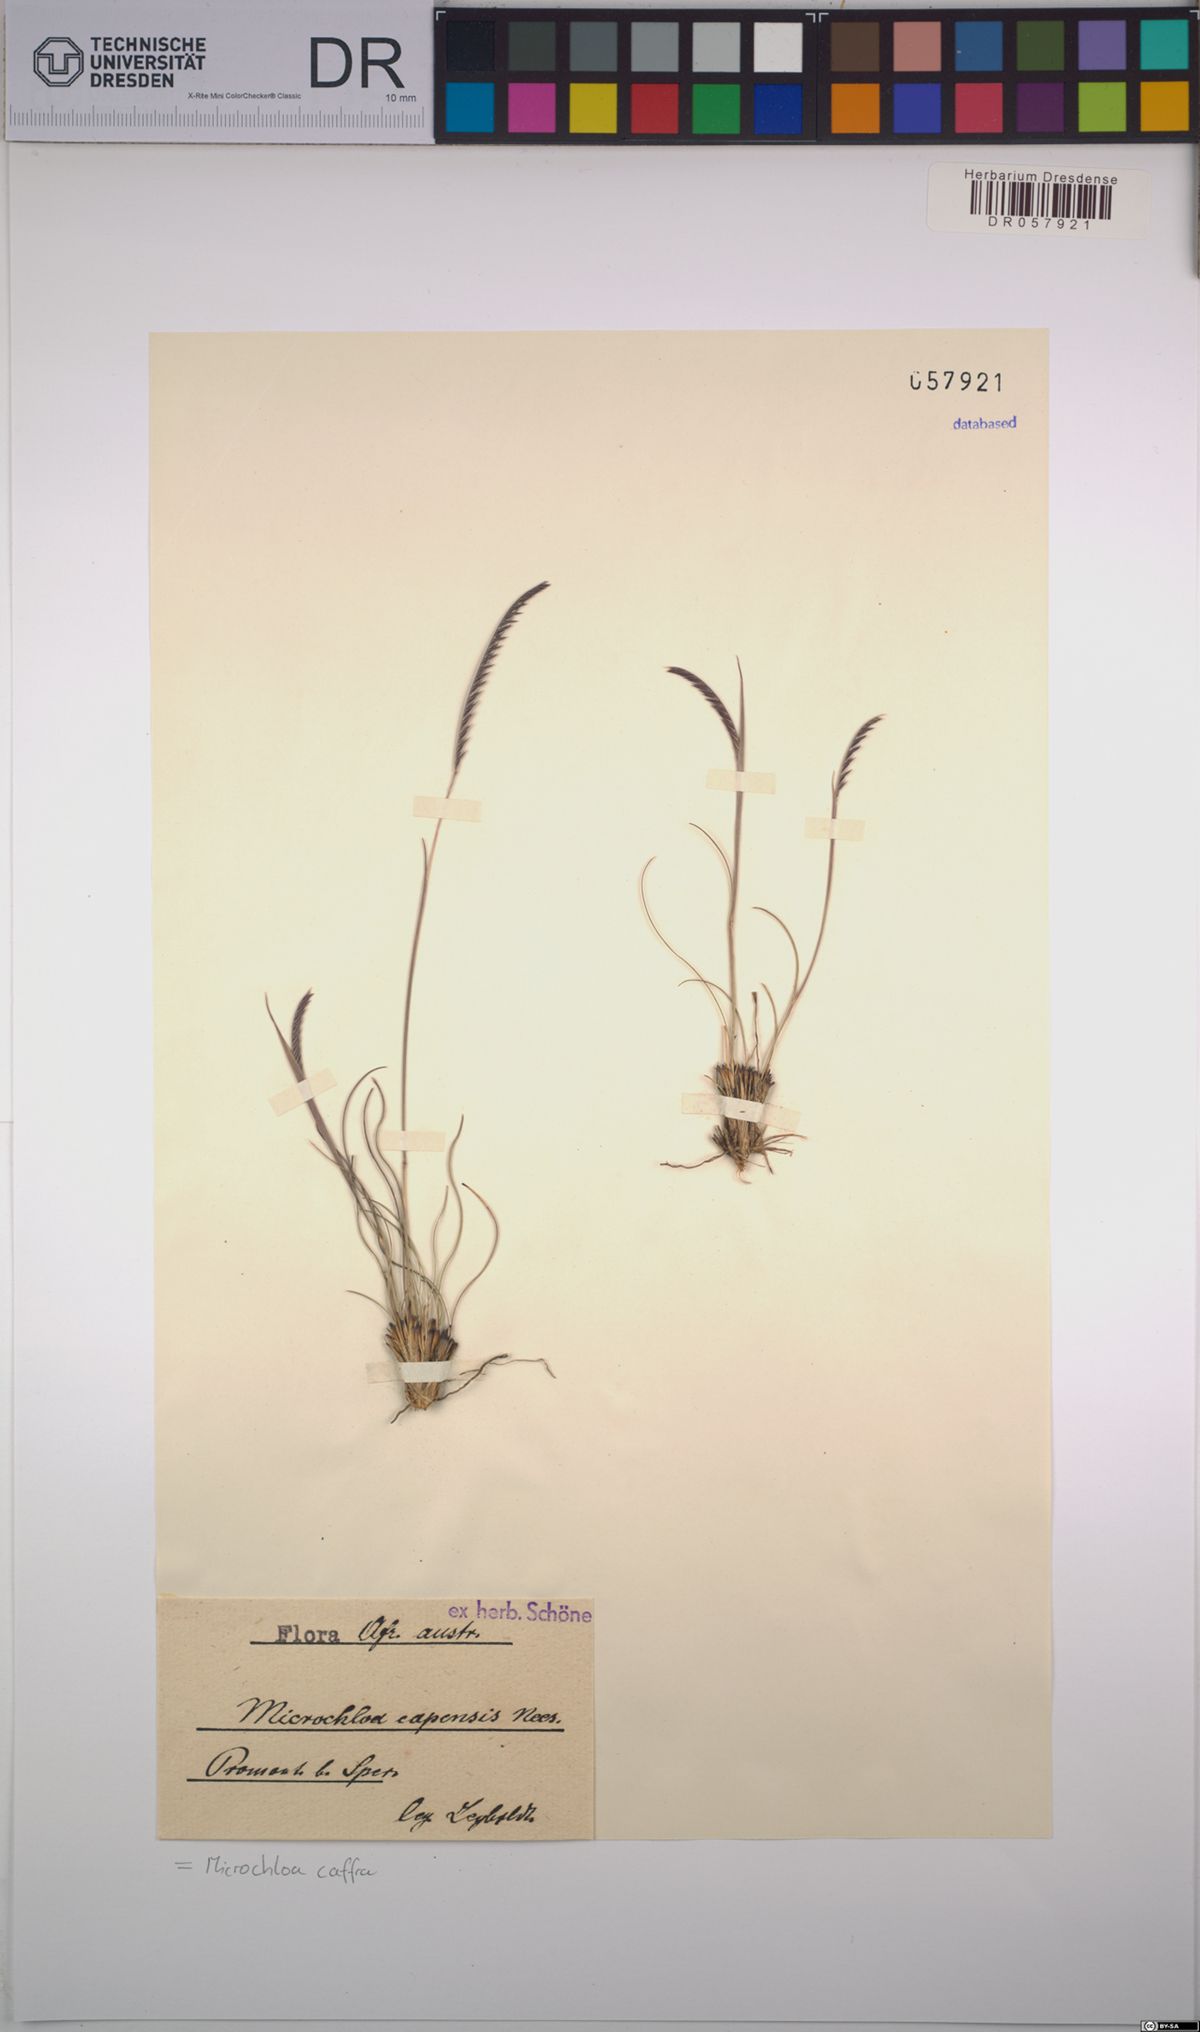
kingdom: Plantae
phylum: Tracheophyta
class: Liliopsida
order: Poales
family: Poaceae
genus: Microchloa
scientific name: Microchloa caffra
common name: Pincushion grass
